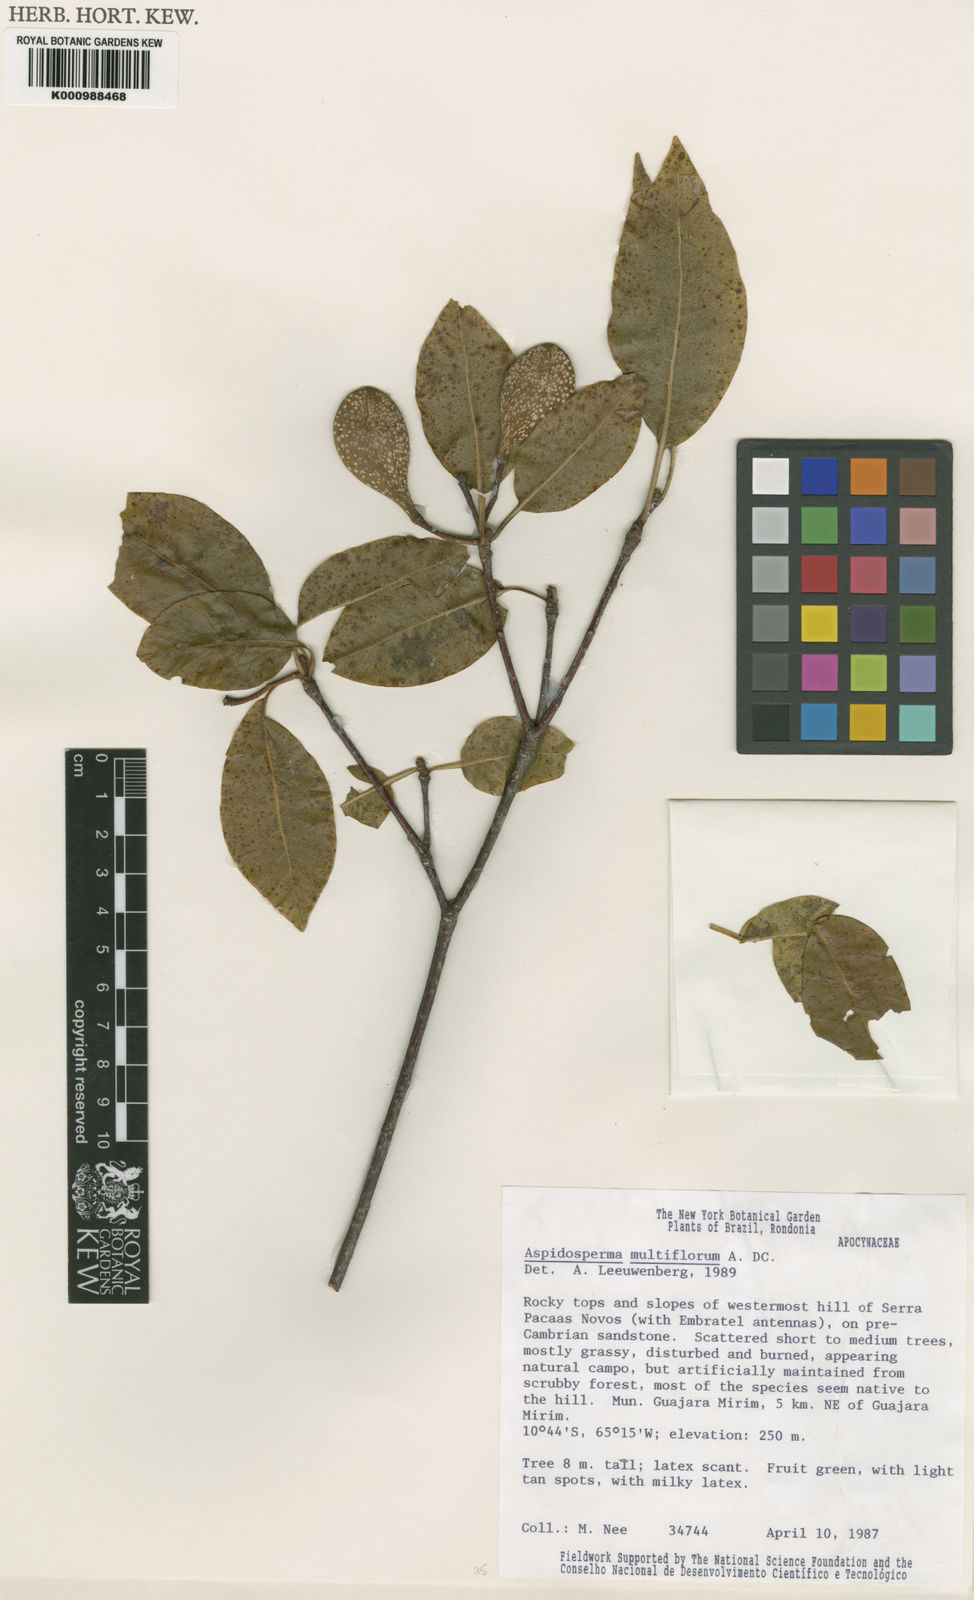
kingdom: Plantae
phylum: Tracheophyta
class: Magnoliopsida
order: Gentianales
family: Apocynaceae
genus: Aspidosperma
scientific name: Aspidosperma multiflorum
